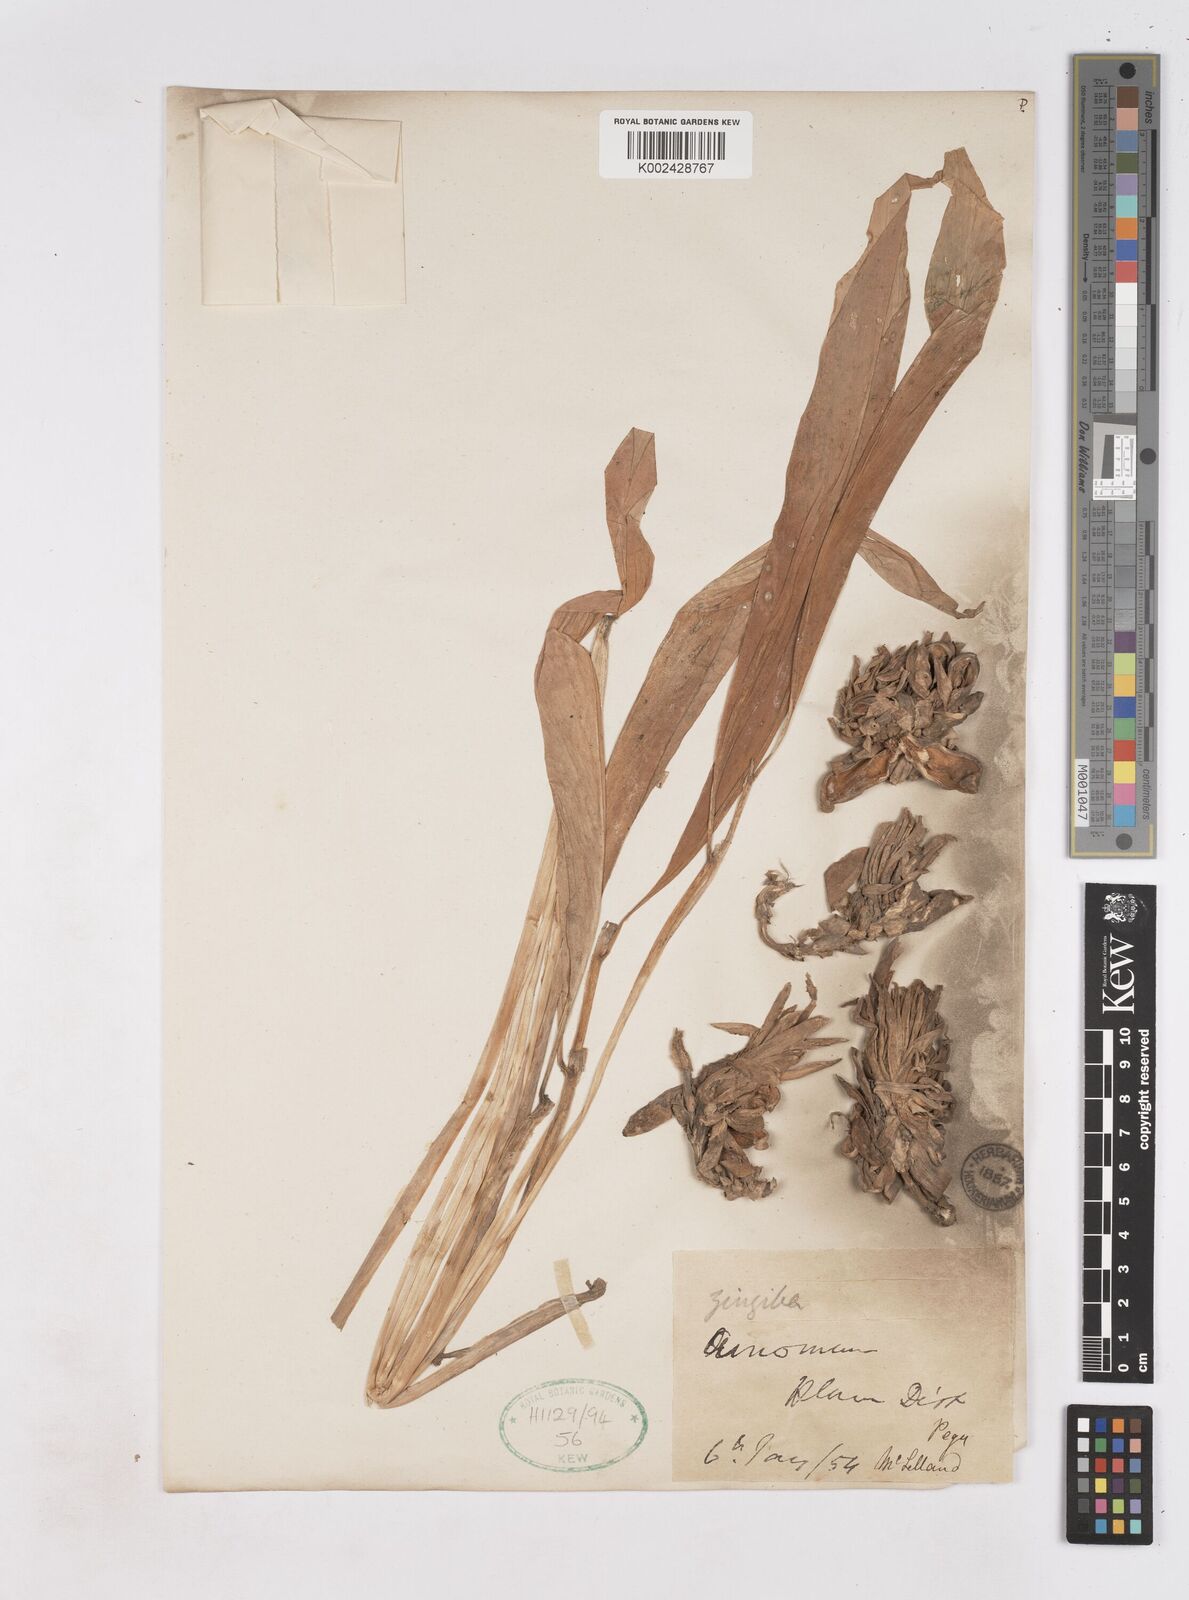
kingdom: Plantae
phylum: Tracheophyta
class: Liliopsida
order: Zingiberales
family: Zingiberaceae
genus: Zingiber
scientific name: Zingiber
